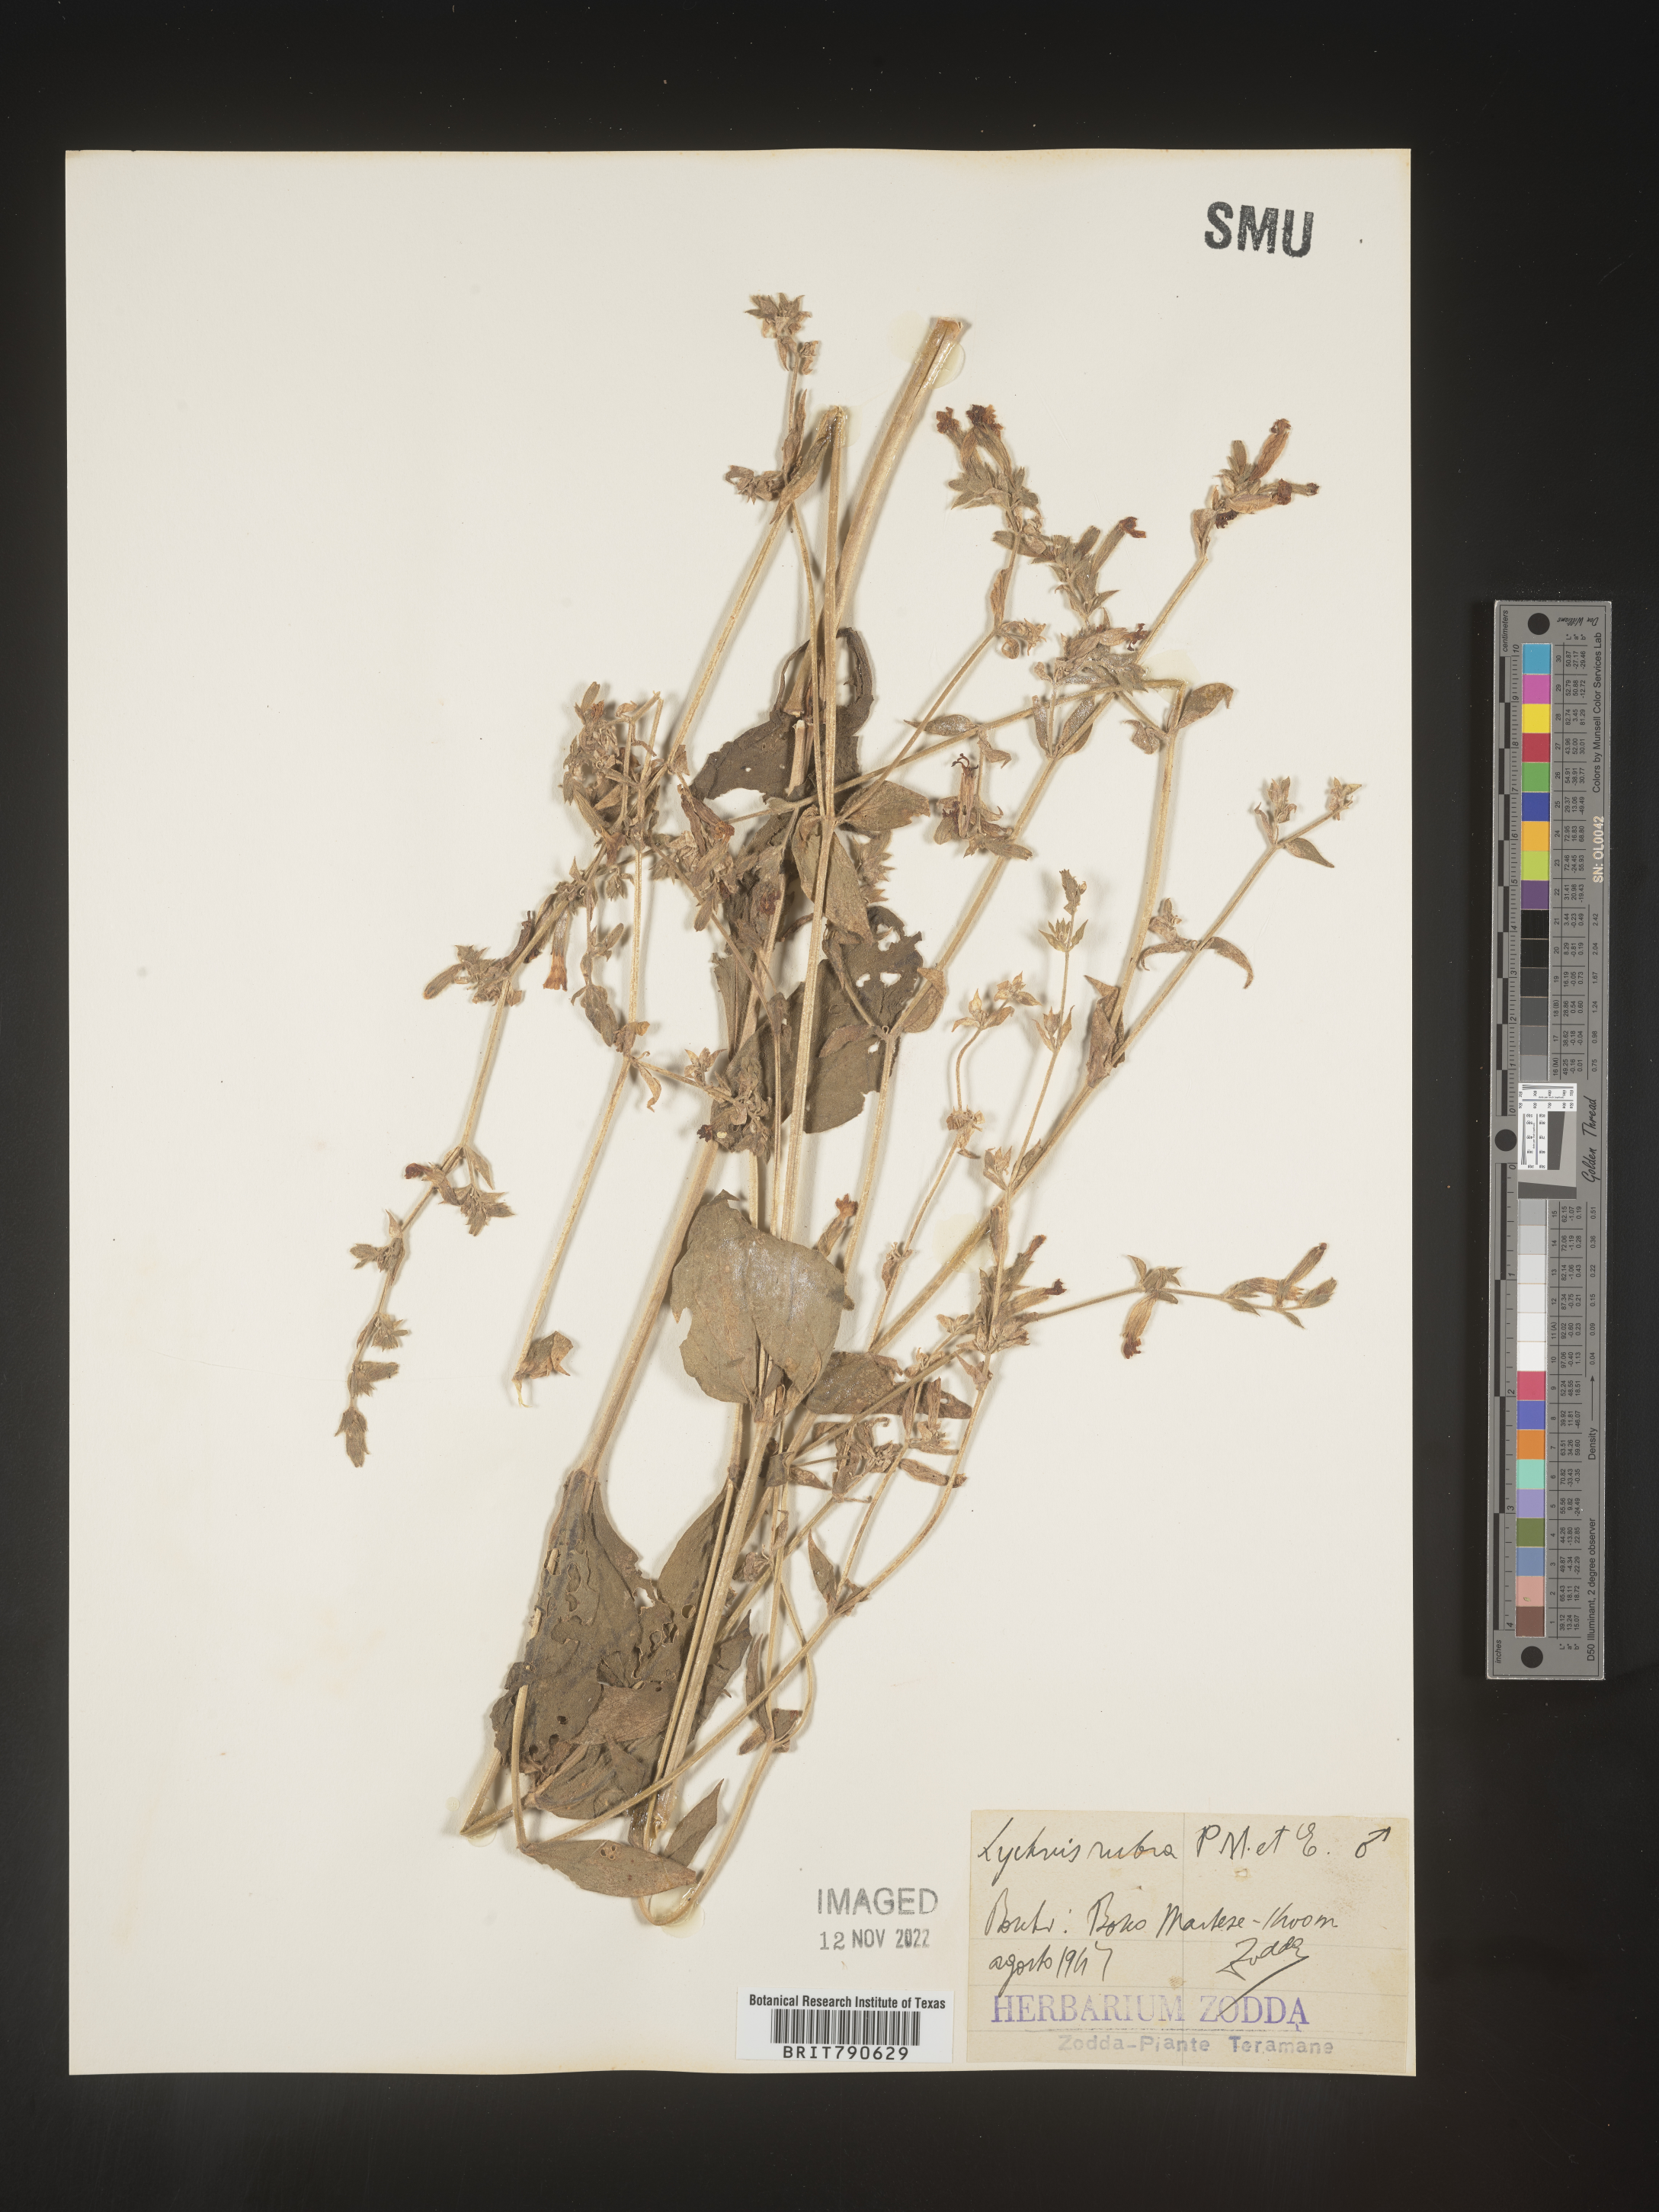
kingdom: Plantae
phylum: Tracheophyta
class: Magnoliopsida
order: Caryophyllales
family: Caryophyllaceae
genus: Silene
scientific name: Silene
